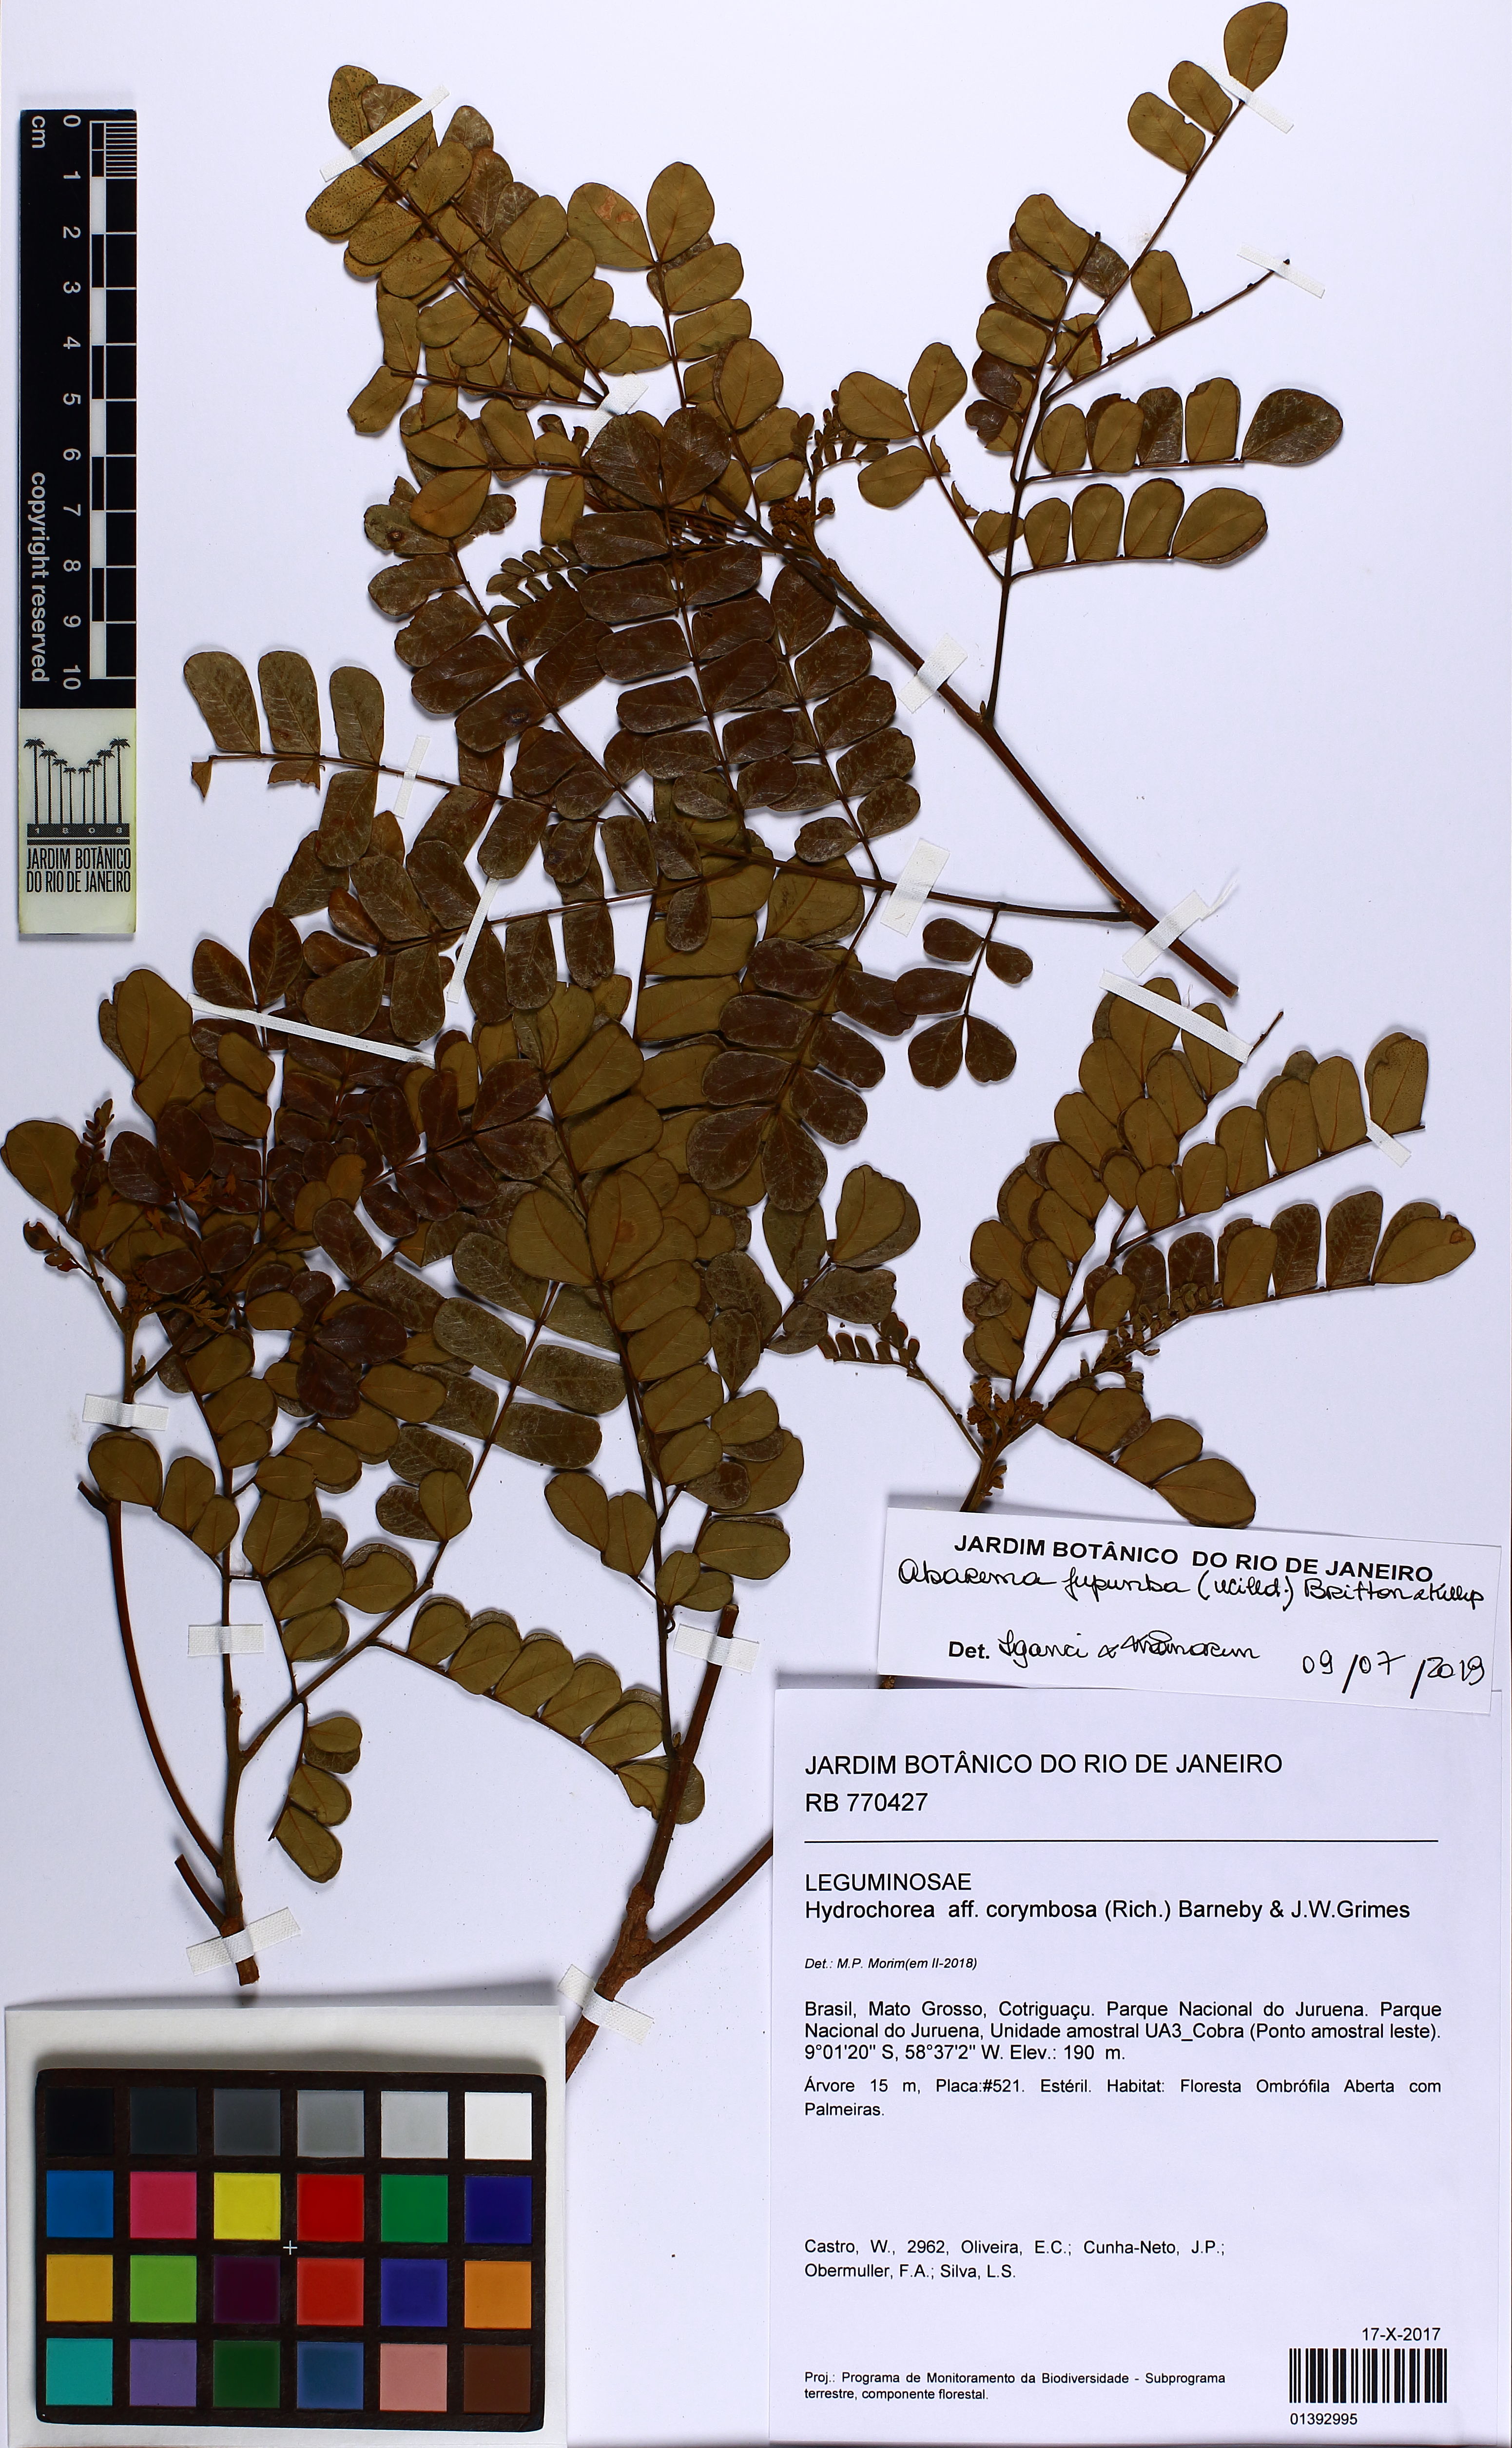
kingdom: Plantae
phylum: Tracheophyta
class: Magnoliopsida
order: Fabales
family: Fabaceae
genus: Jupunba
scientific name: Jupunba trapezifolia
